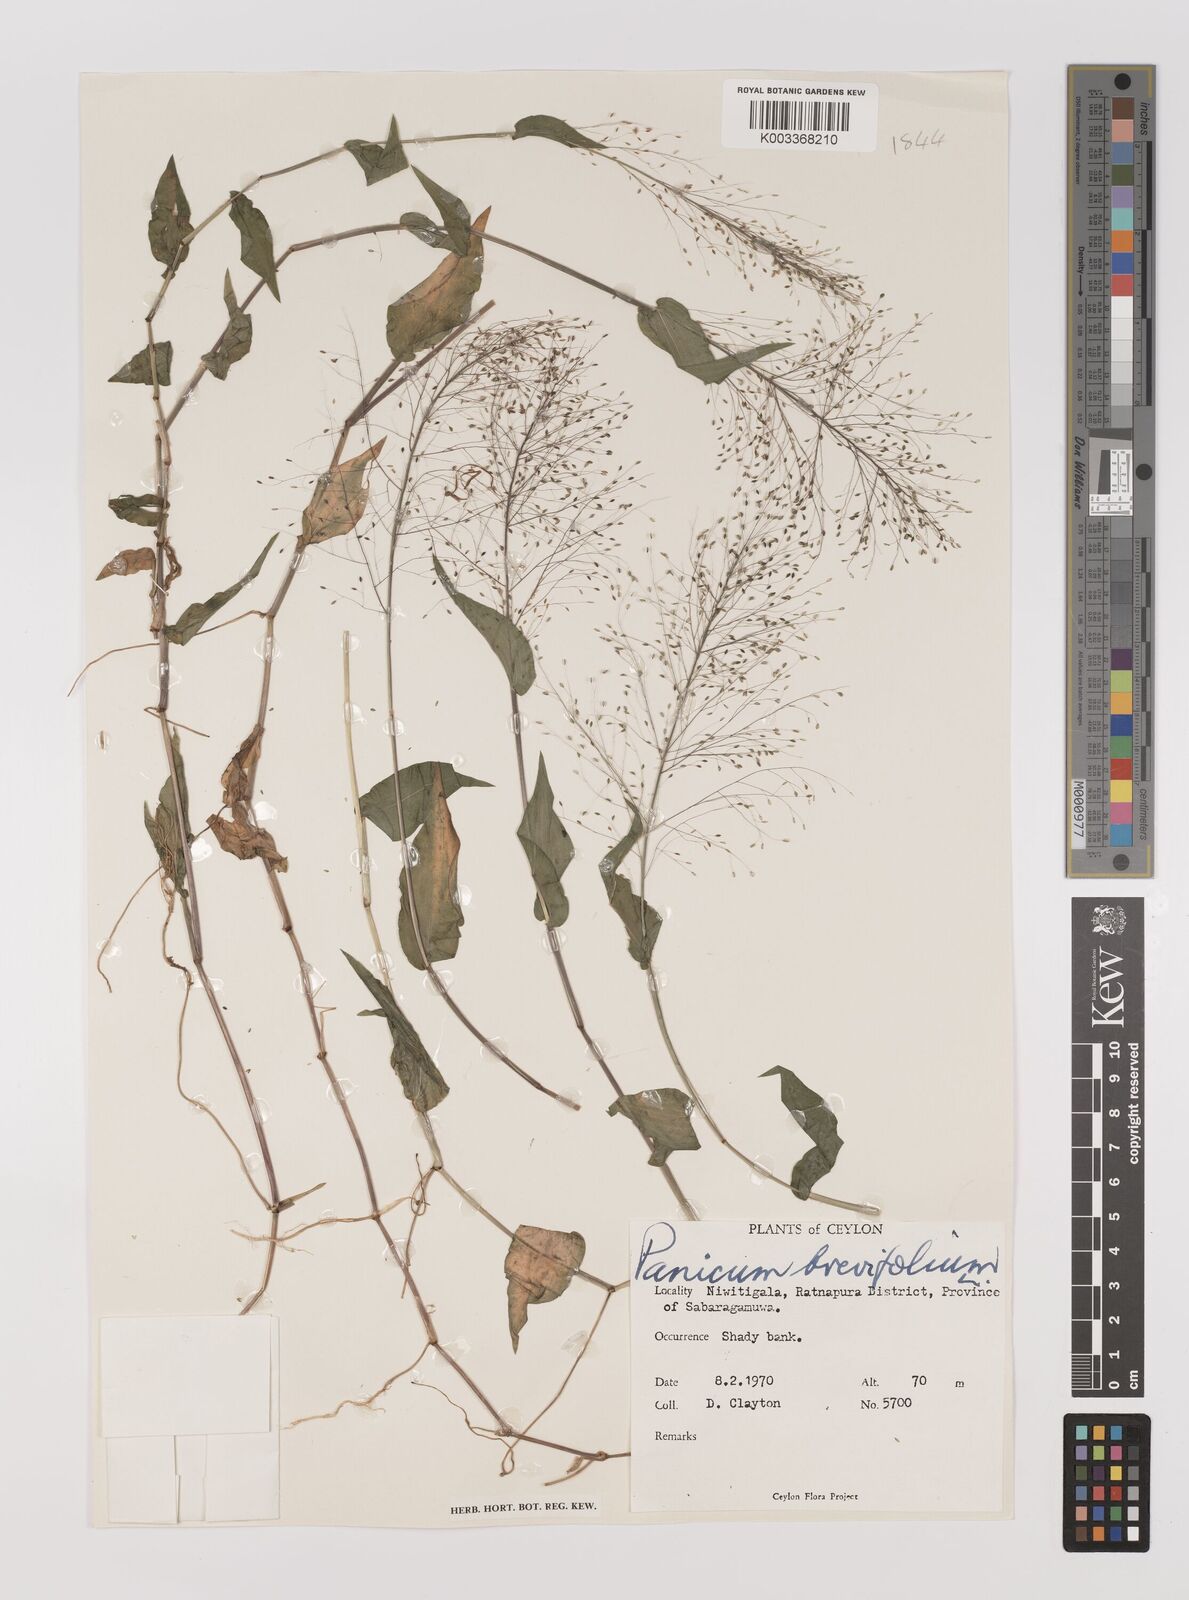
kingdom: Plantae
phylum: Tracheophyta
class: Liliopsida
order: Poales
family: Poaceae
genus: Panicum
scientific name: Panicum brevifolium
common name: Shortleaf panic grass
